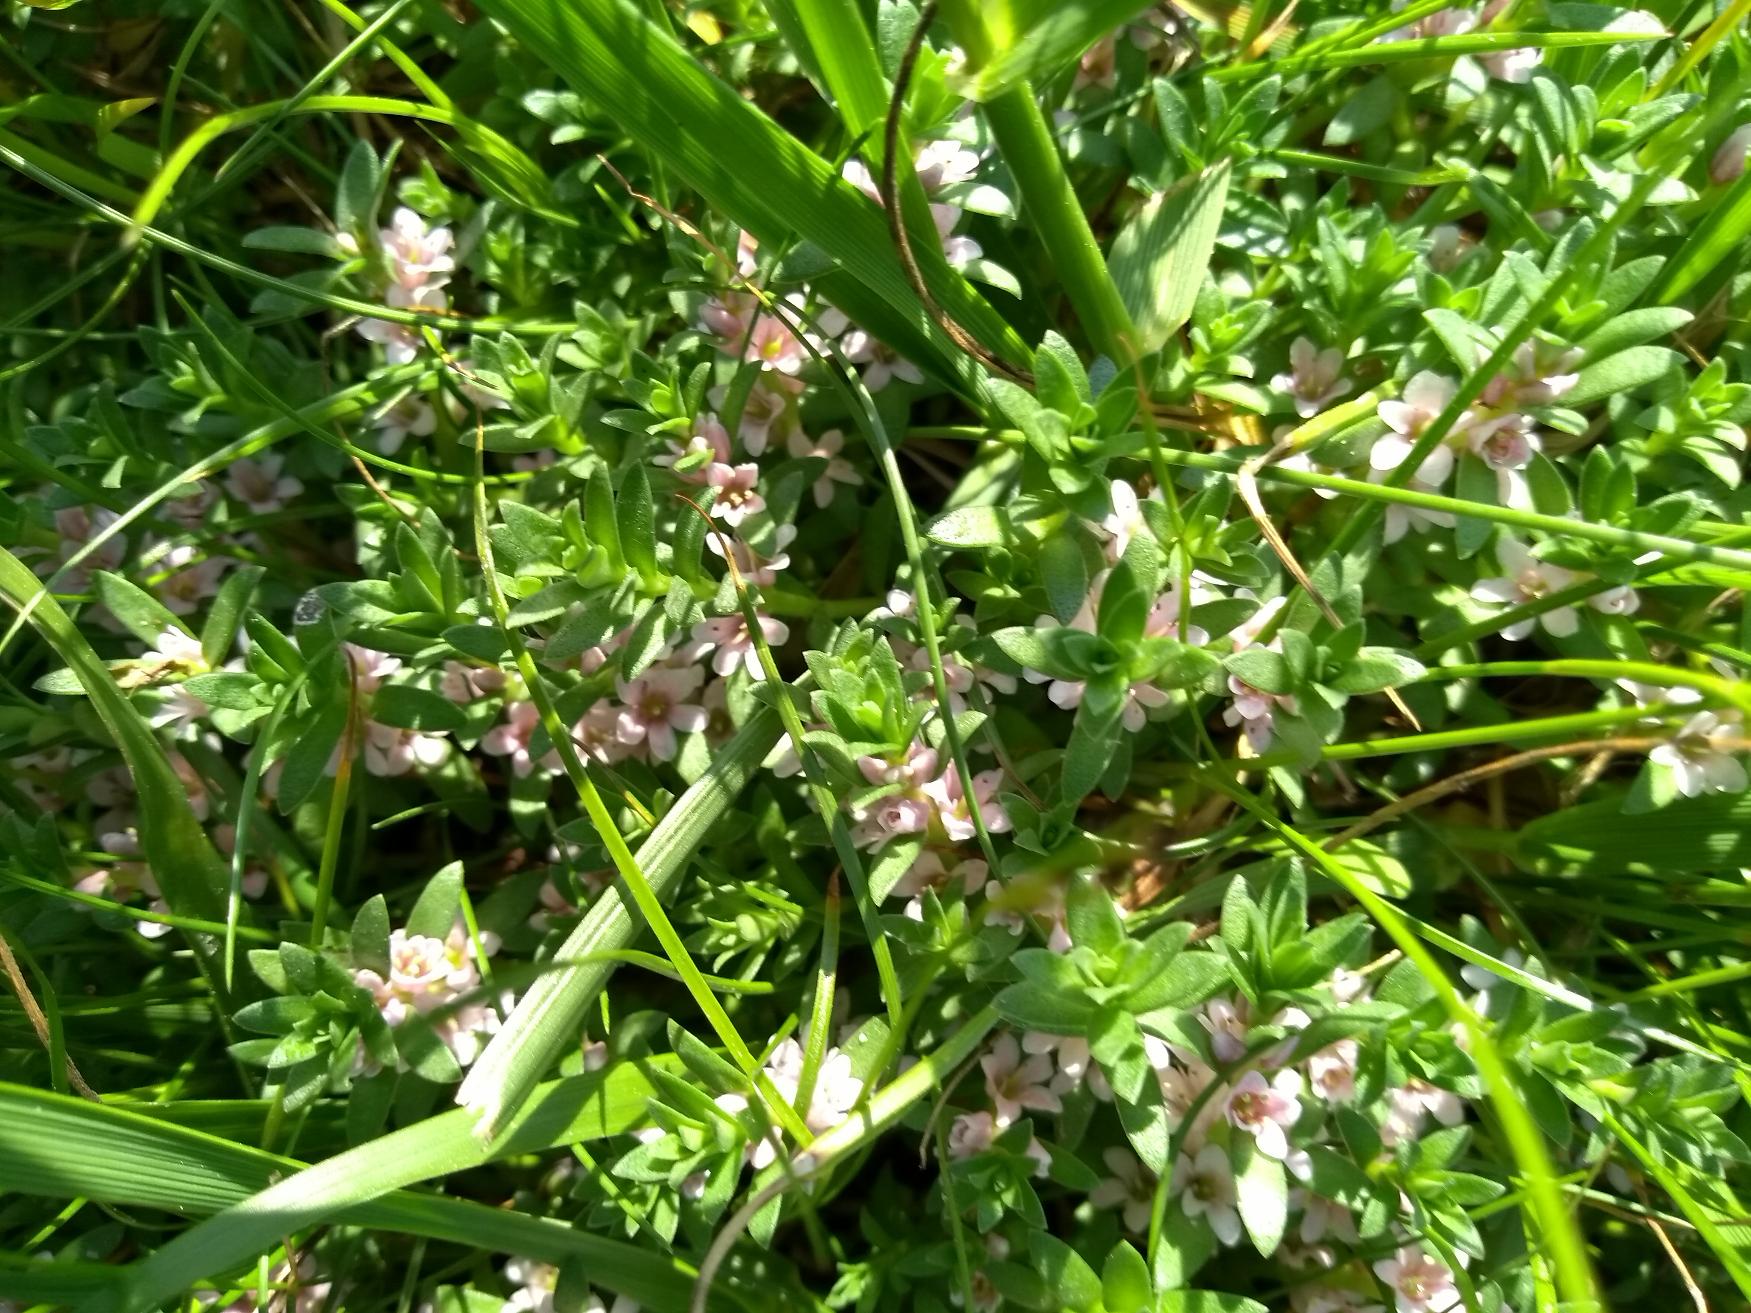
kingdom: Plantae
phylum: Tracheophyta
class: Magnoliopsida
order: Ericales
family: Primulaceae
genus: Lysimachia
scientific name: Lysimachia maritima
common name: Sandkryb
